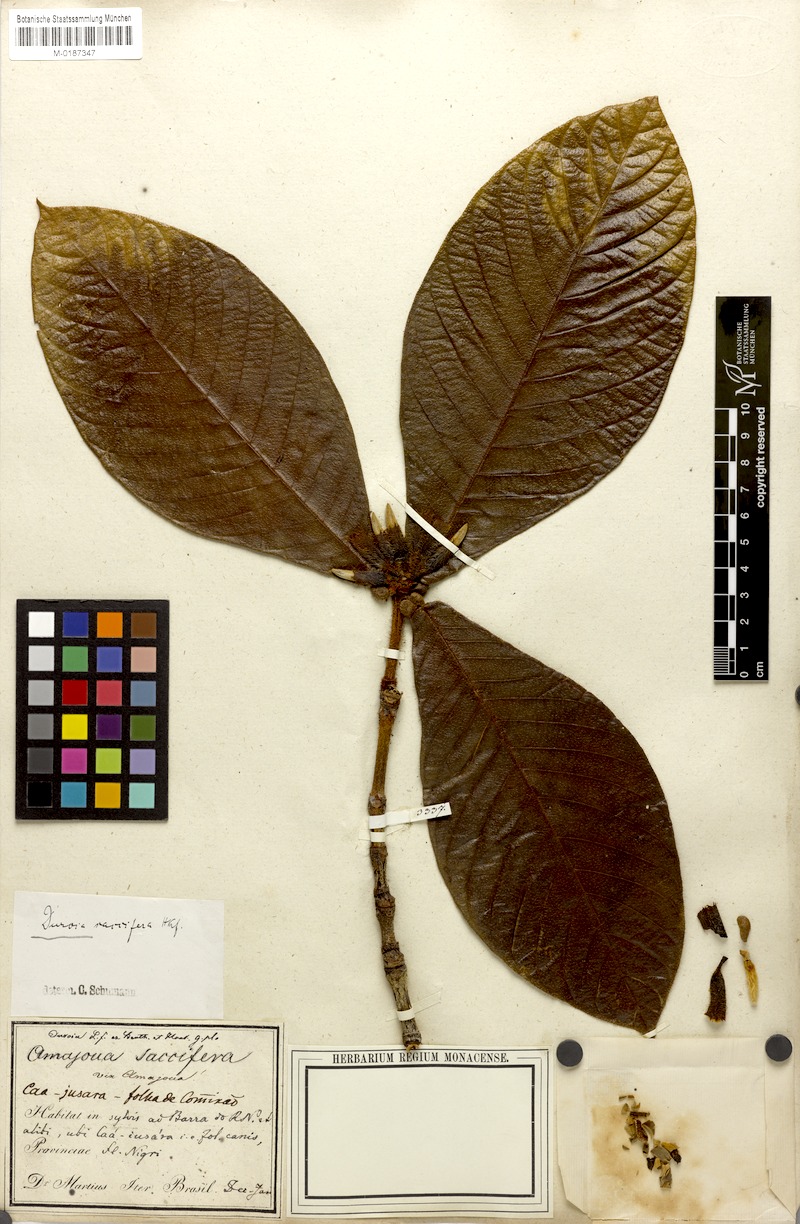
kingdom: Plantae
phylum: Tracheophyta
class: Magnoliopsida
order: Gentianales
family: Rubiaceae
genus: Duroia
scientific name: Duroia saccifera
